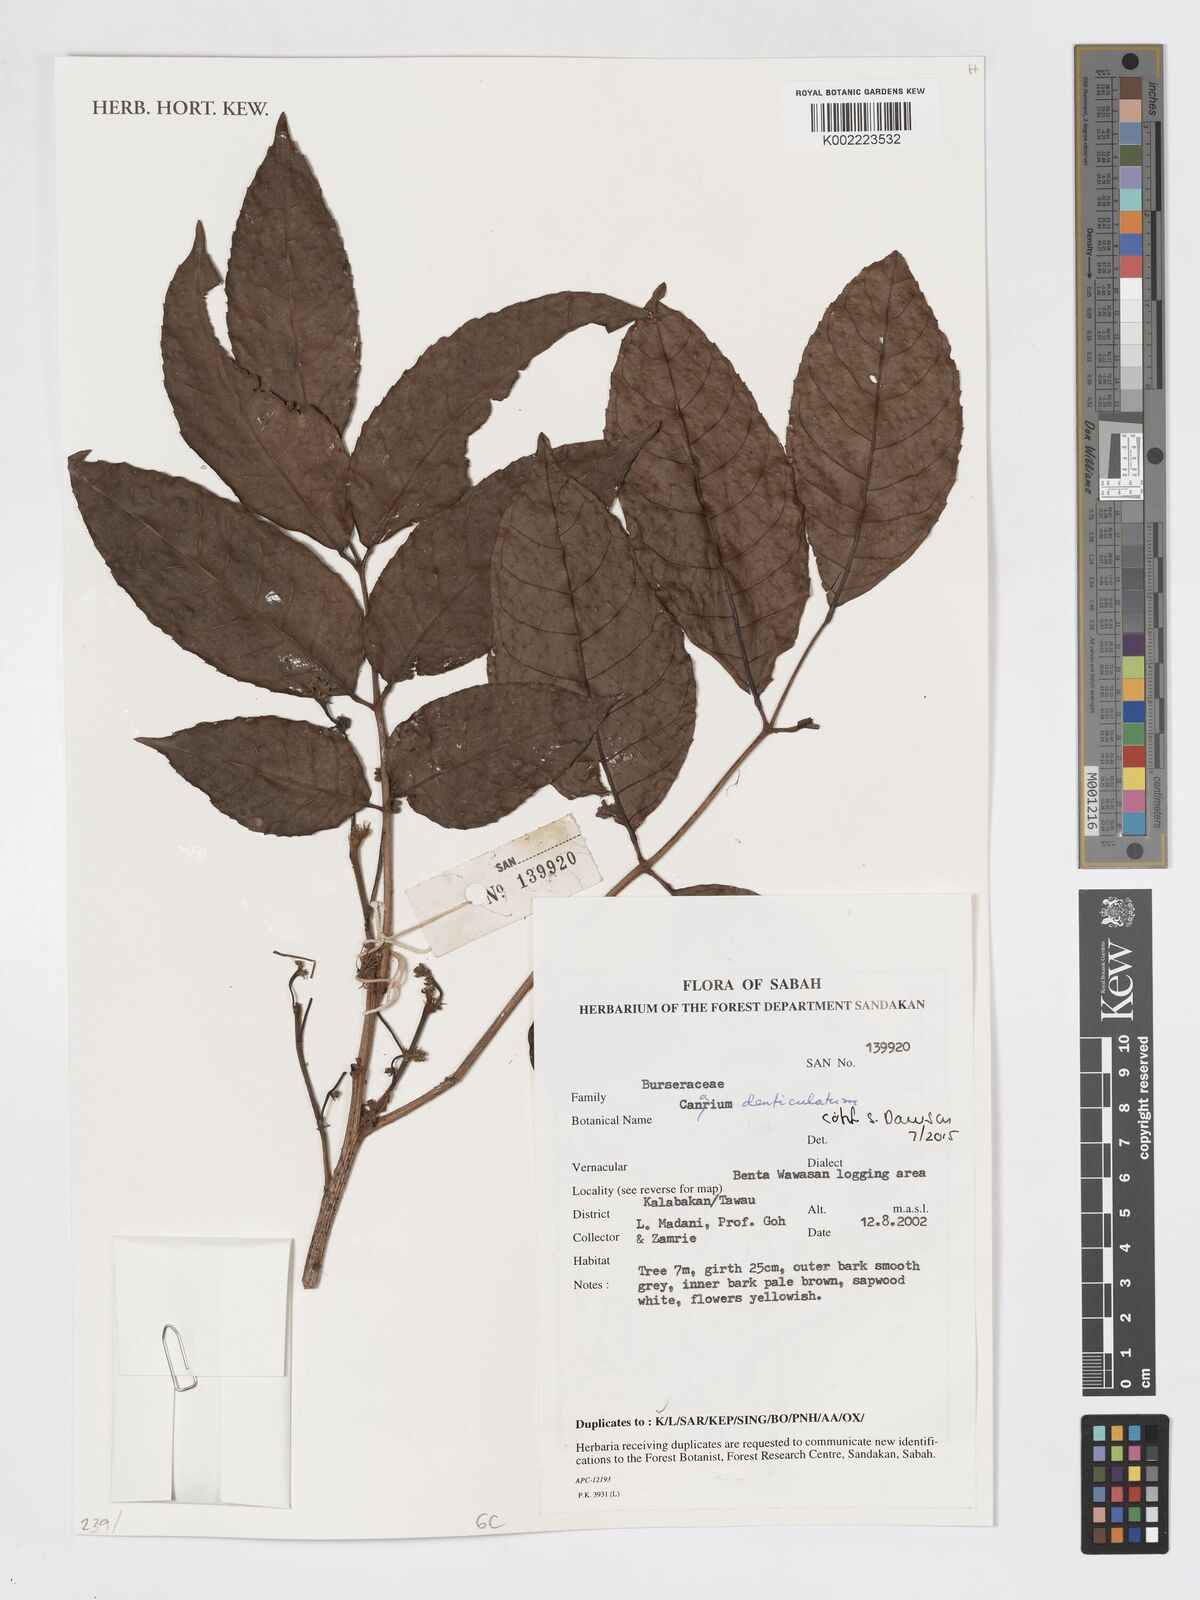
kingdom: Plantae
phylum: Tracheophyta
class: Magnoliopsida
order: Sapindales
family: Burseraceae
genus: Canarium
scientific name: Canarium denticulatum
